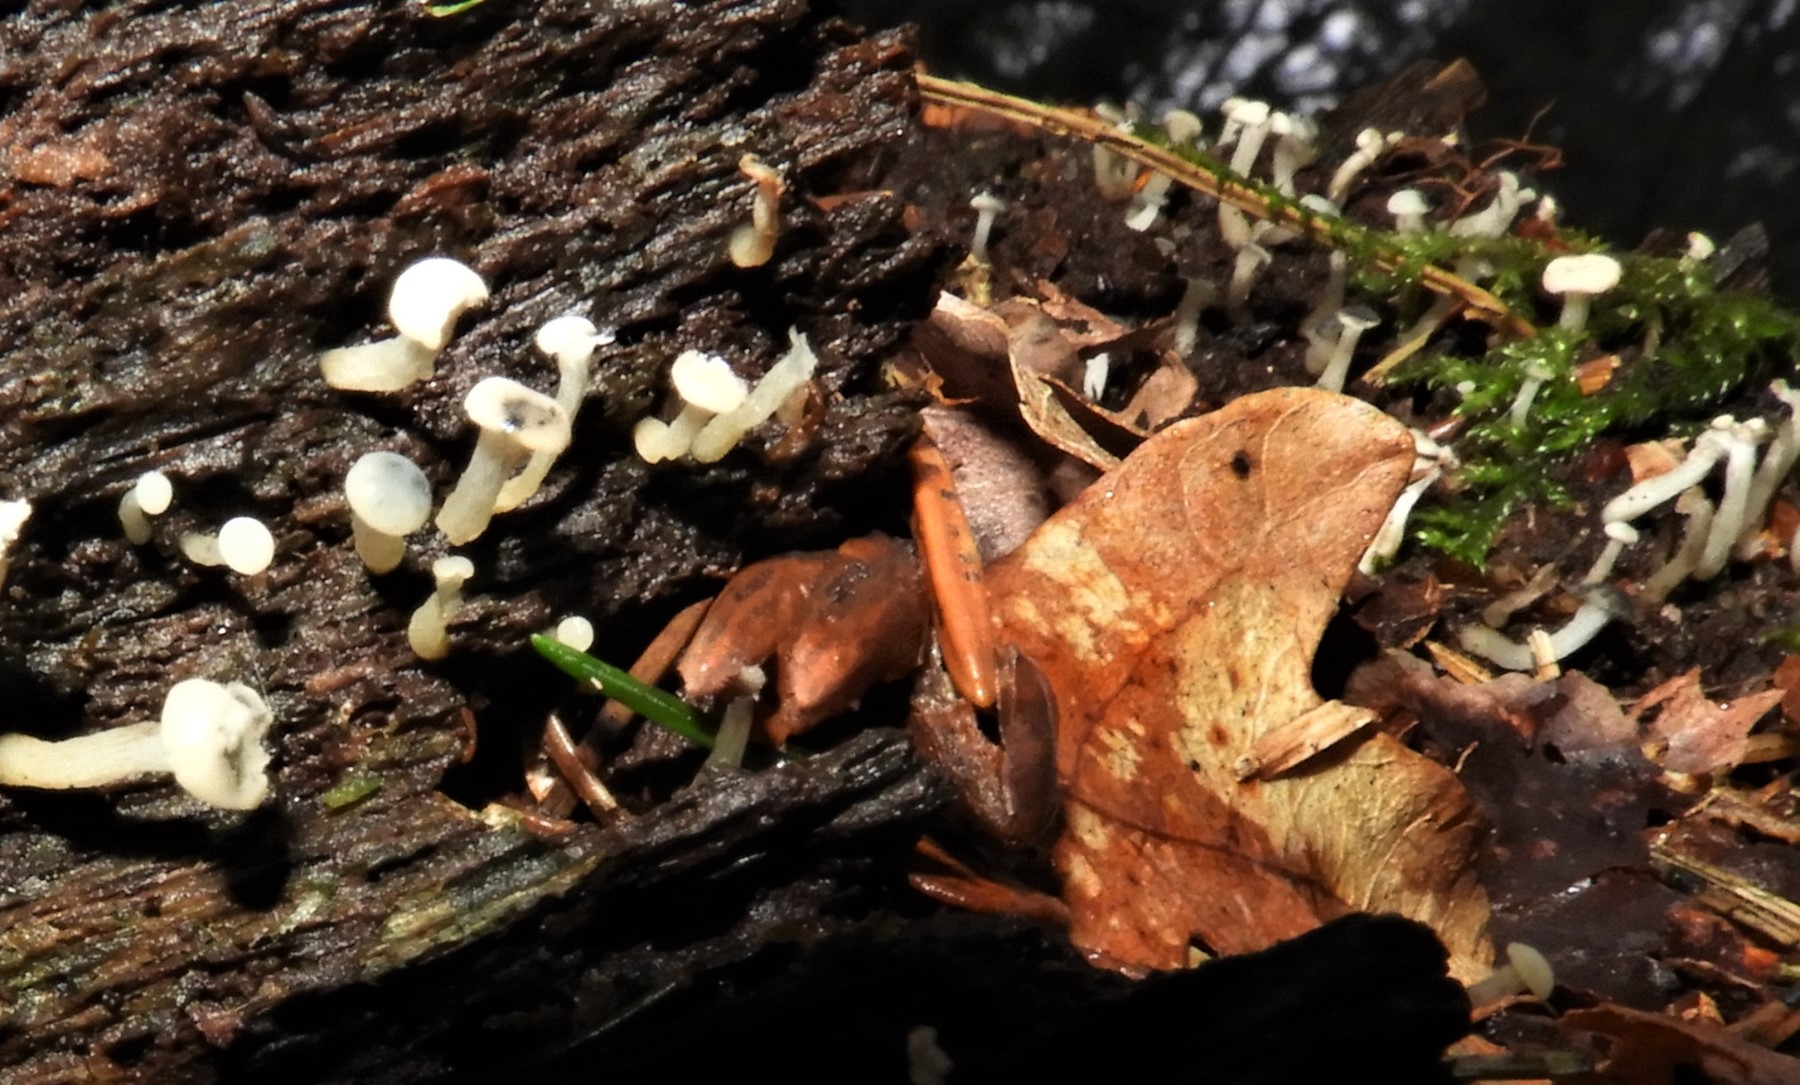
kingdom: Fungi
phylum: Ascomycota
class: Leotiomycetes
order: Helotiales
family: Tricladiaceae
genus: Cudoniella
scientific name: Cudoniella acicularis
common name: ege-dyndskive
